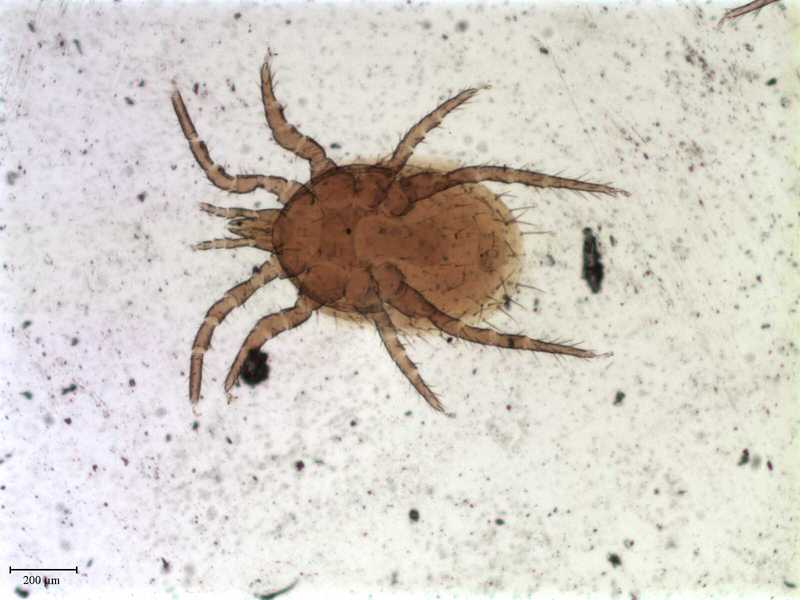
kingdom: Animalia
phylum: Arthropoda
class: Arachnida
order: Mesostigmata
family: Laelapidae
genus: Androlaelaps
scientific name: Androlaelaps
